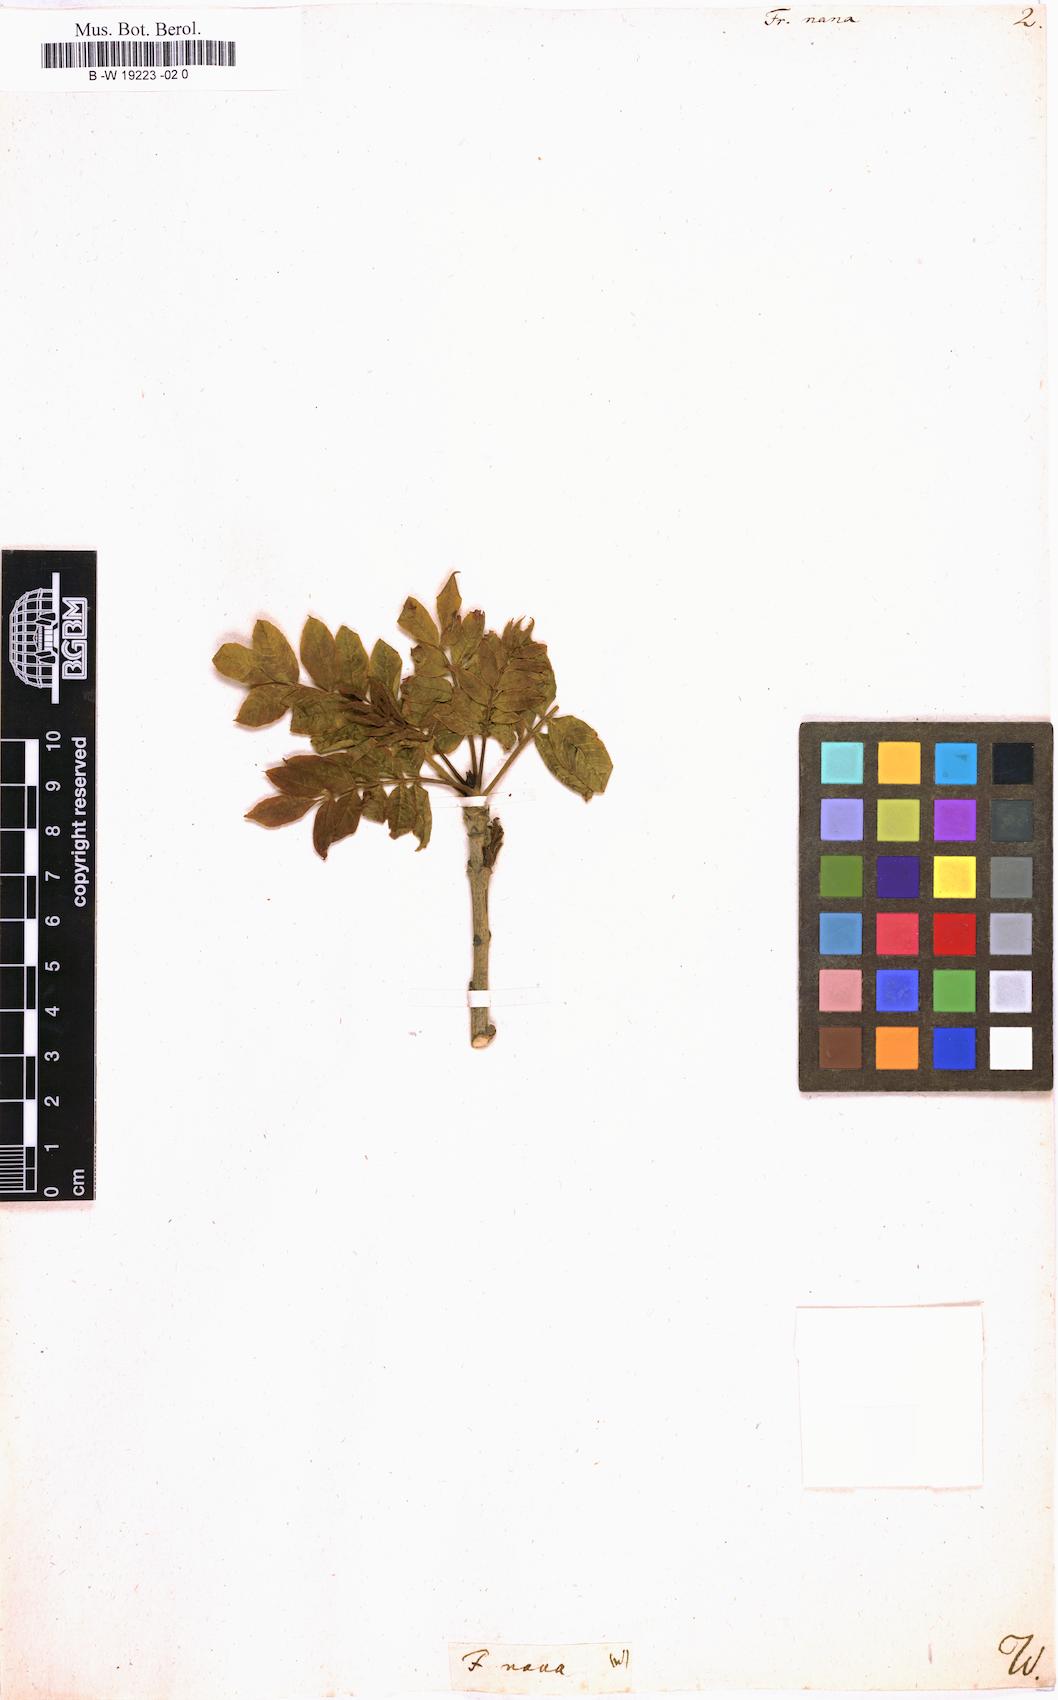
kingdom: Plantae
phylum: Tracheophyta
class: Magnoliopsida
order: Lamiales
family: Oleaceae
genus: Fraxinus
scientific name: Fraxinus excelsior
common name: European ash
